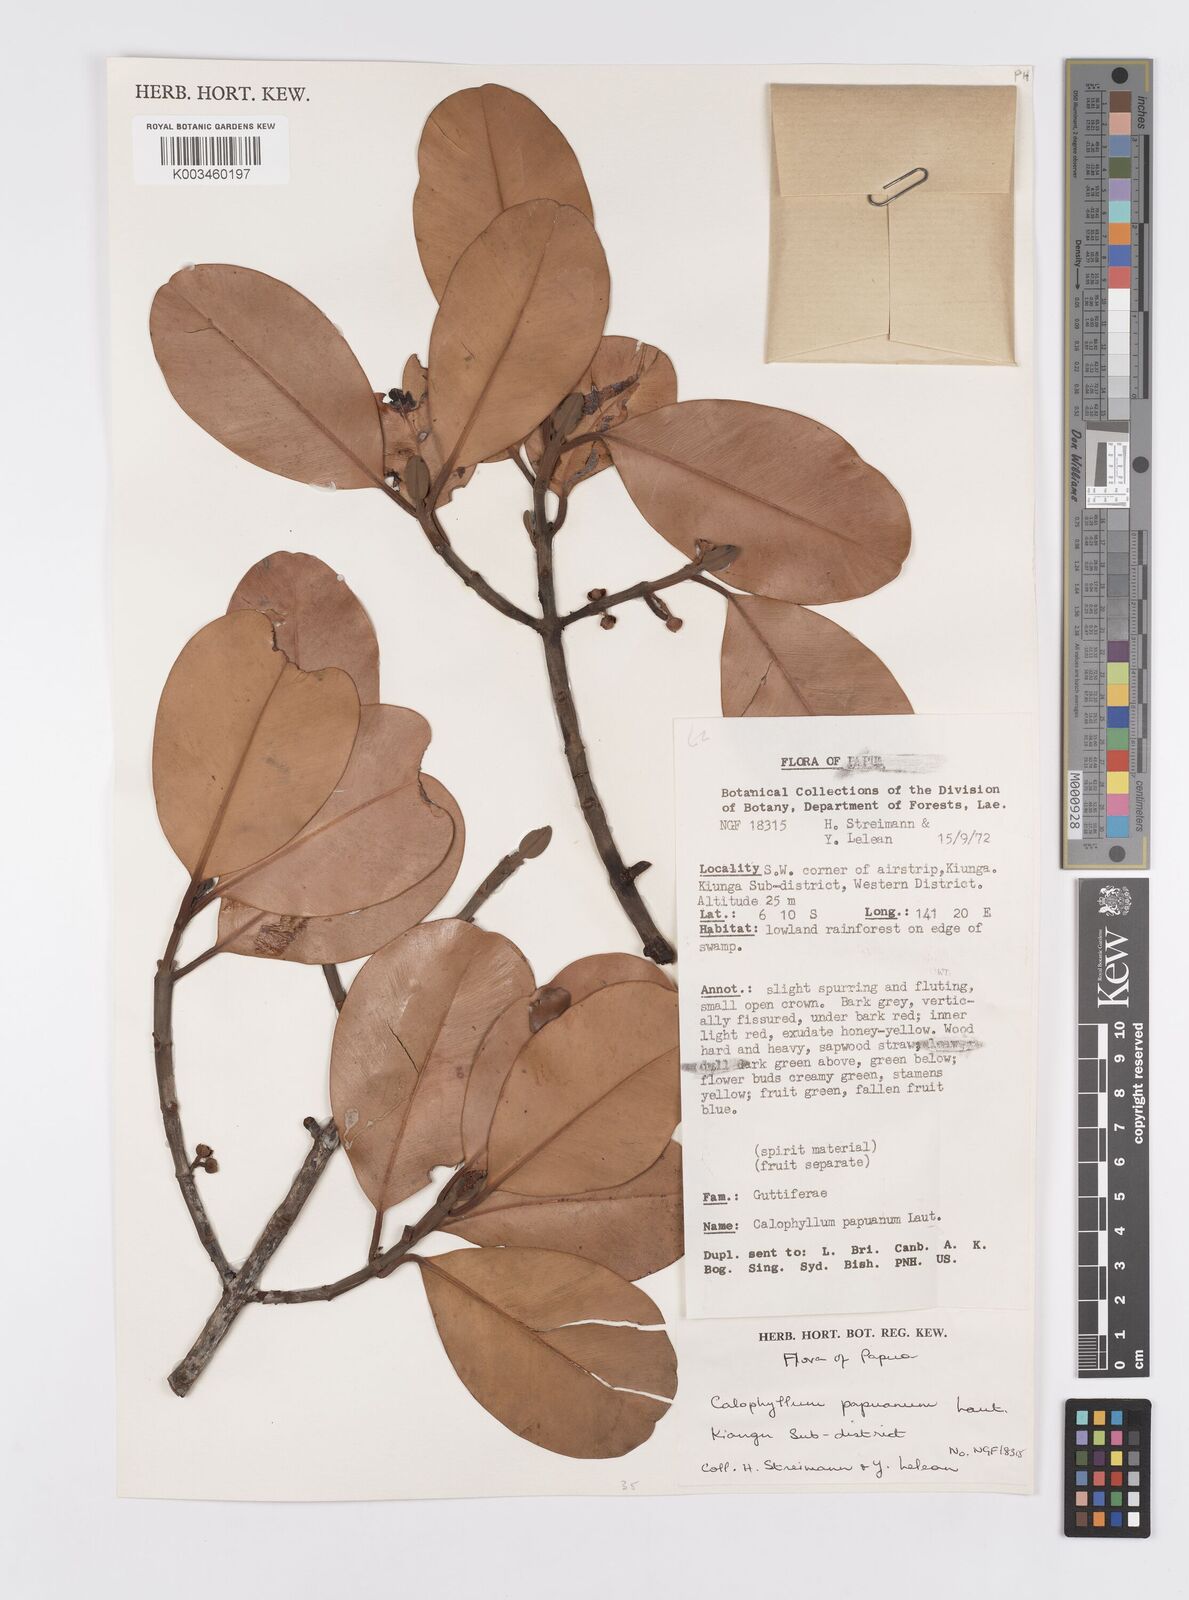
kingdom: Plantae
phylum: Tracheophyta
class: Magnoliopsida
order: Malpighiales
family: Calophyllaceae
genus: Calophyllum
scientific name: Calophyllum papuanum
